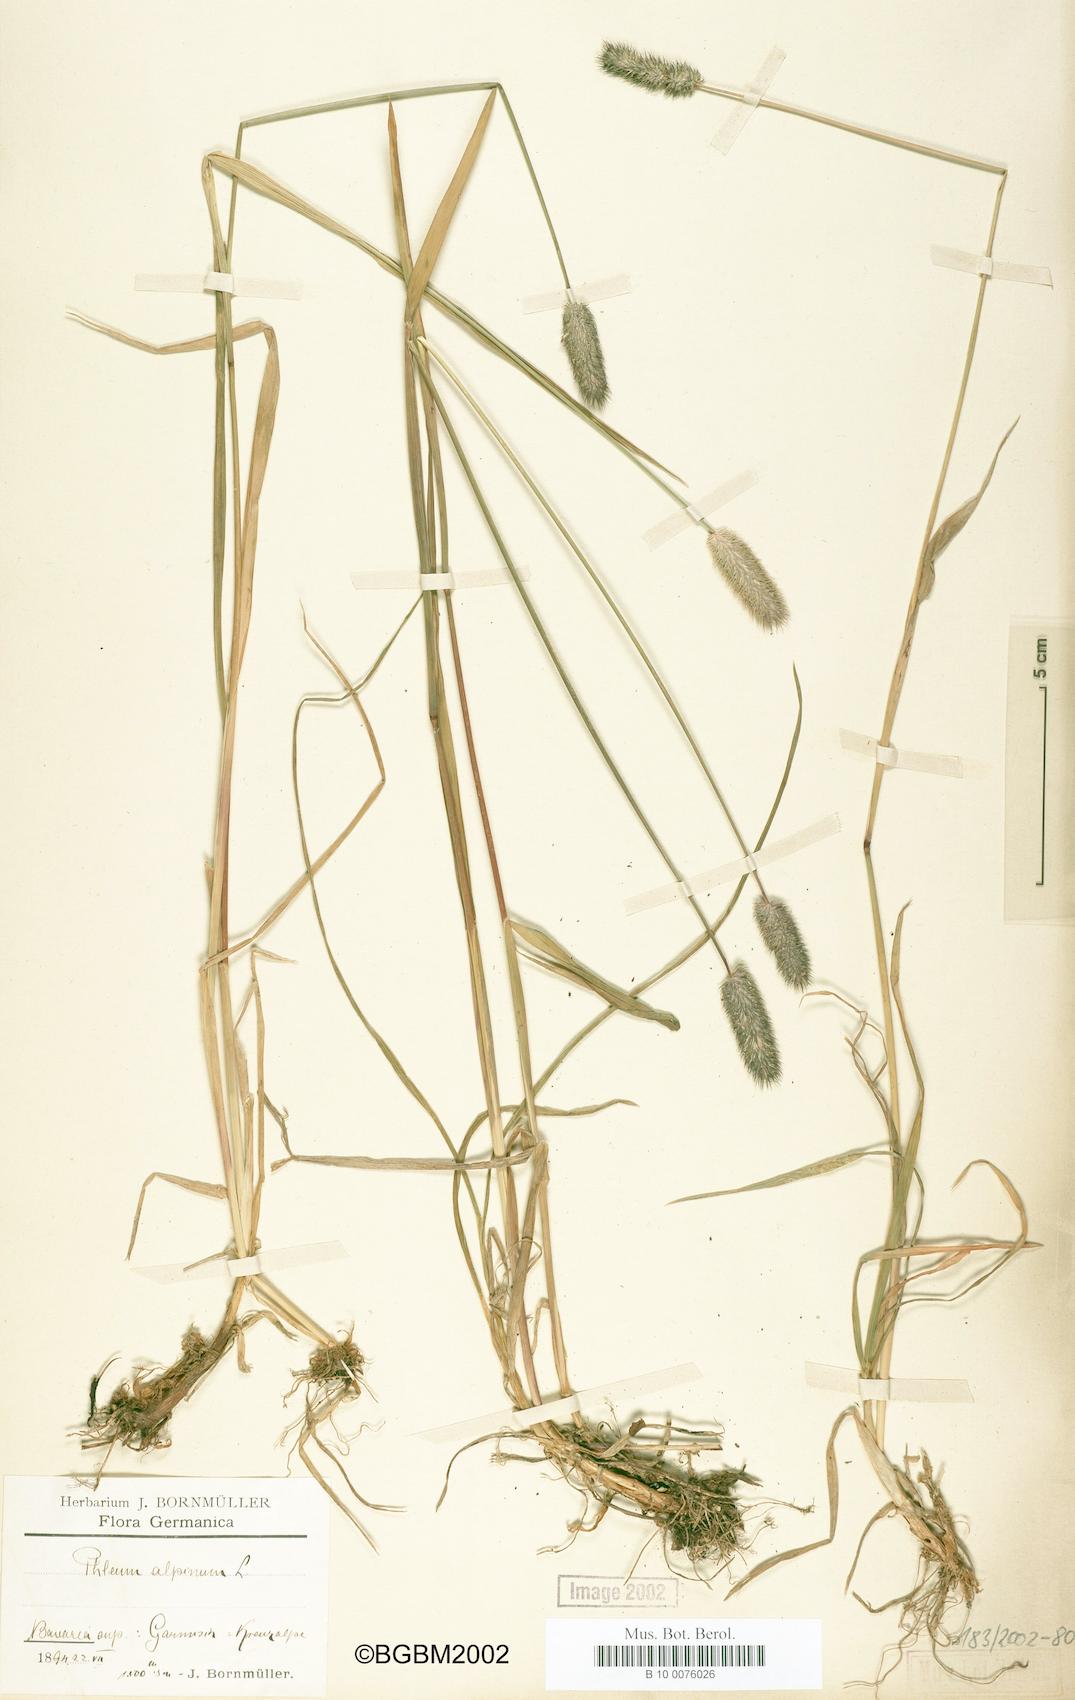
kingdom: Plantae
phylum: Tracheophyta
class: Liliopsida
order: Poales
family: Poaceae
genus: Phleum
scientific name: Phleum alpinum
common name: Alpine cat's-tail
